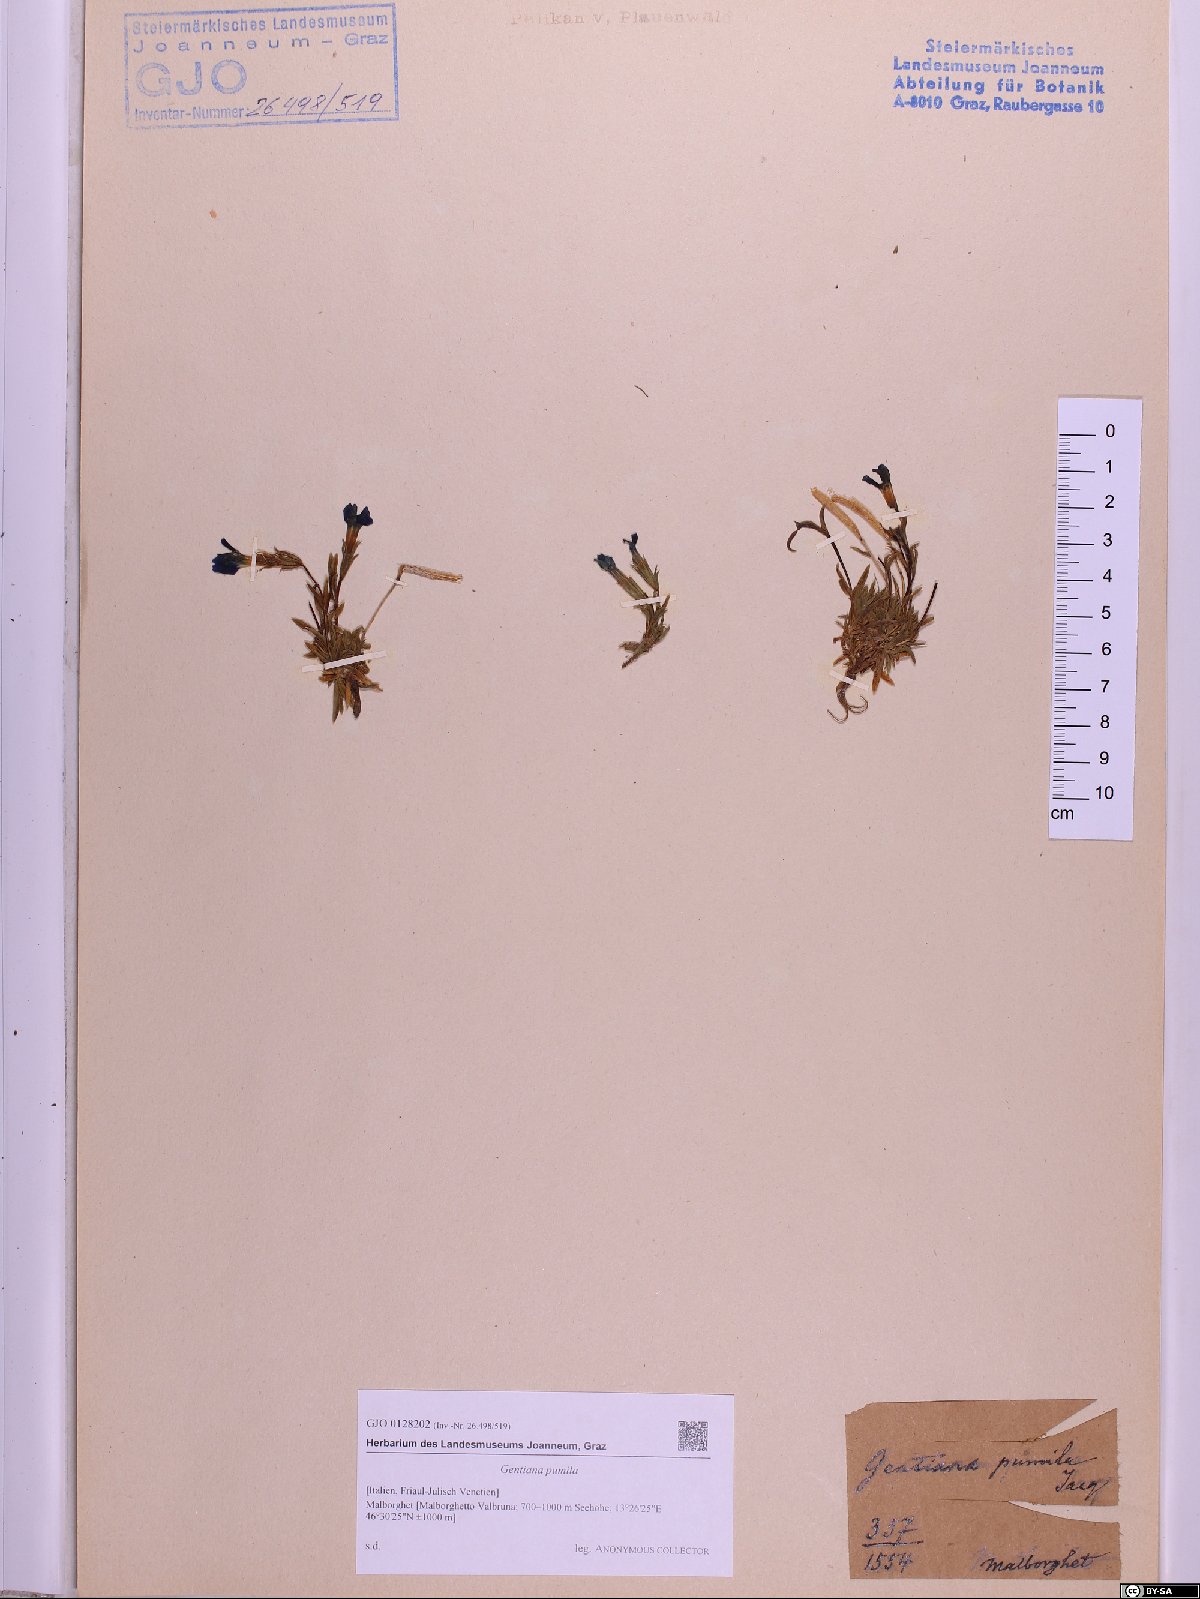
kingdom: Plantae
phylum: Tracheophyta
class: Magnoliopsida
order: Gentianales
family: Gentianaceae
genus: Gentiana
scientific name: Gentiana pumila
